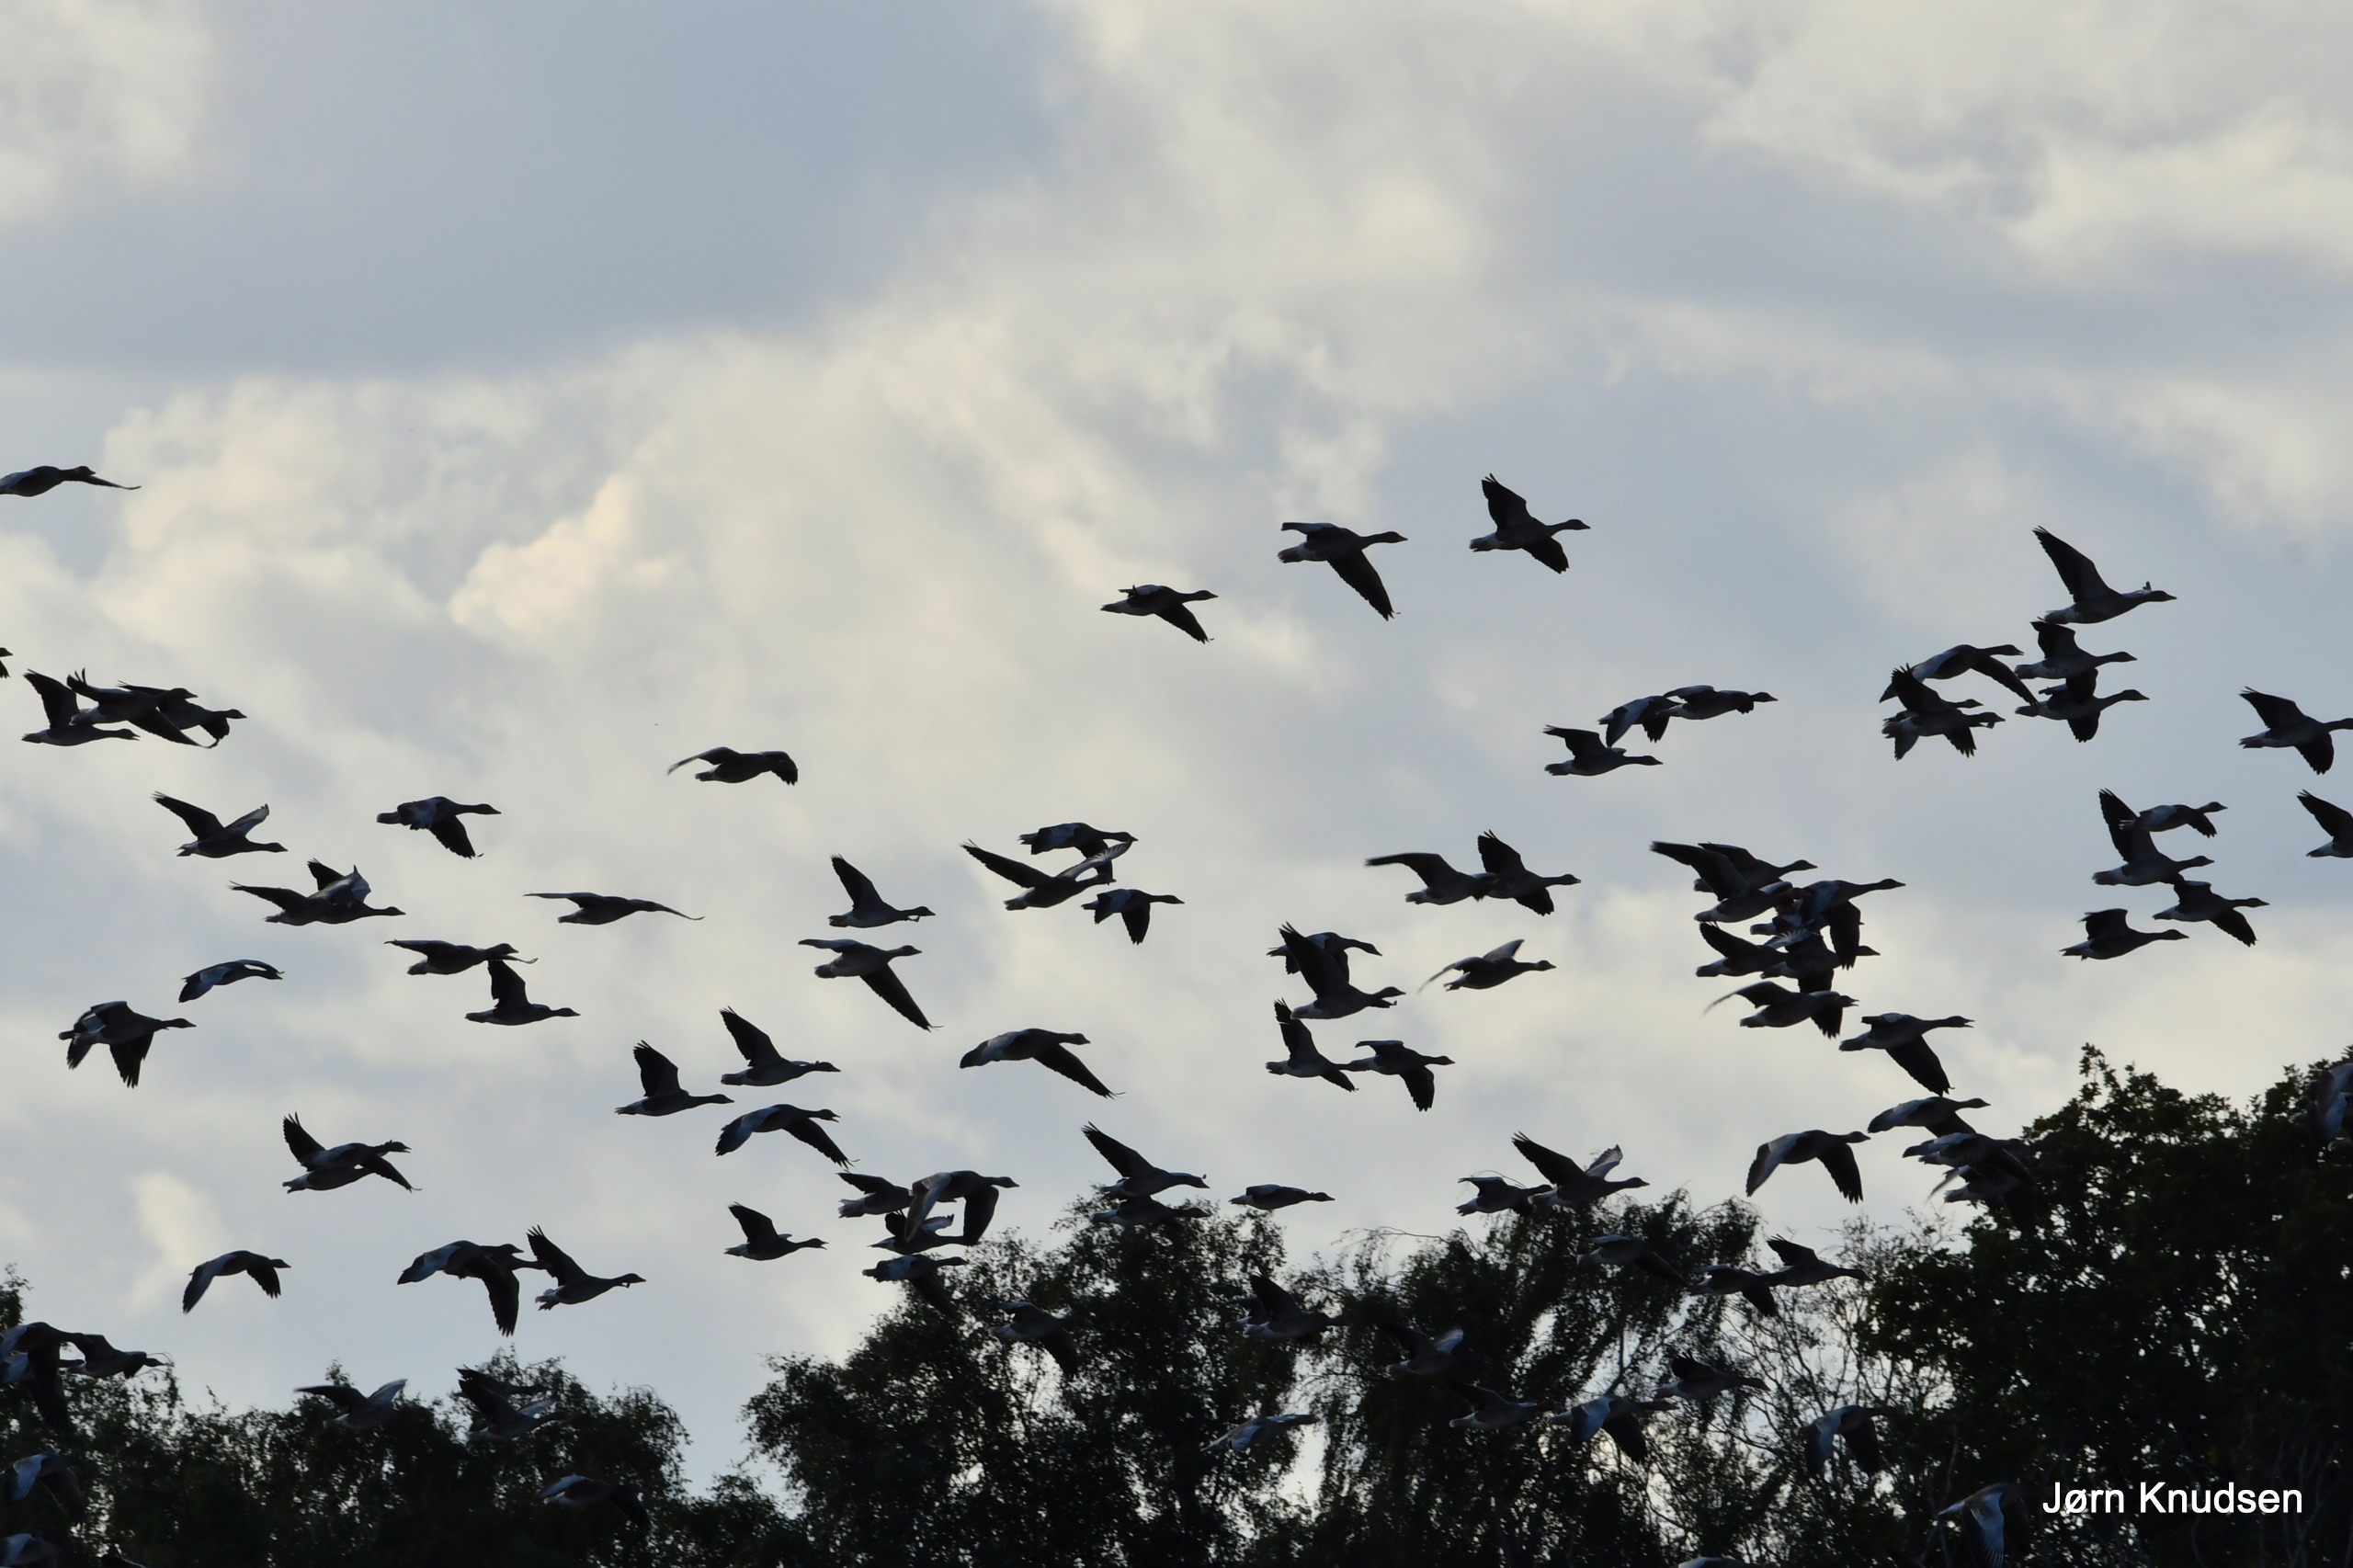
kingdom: Animalia
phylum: Chordata
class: Aves
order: Anseriformes
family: Anatidae
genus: Anser
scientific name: Anser anser
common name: Grågås
